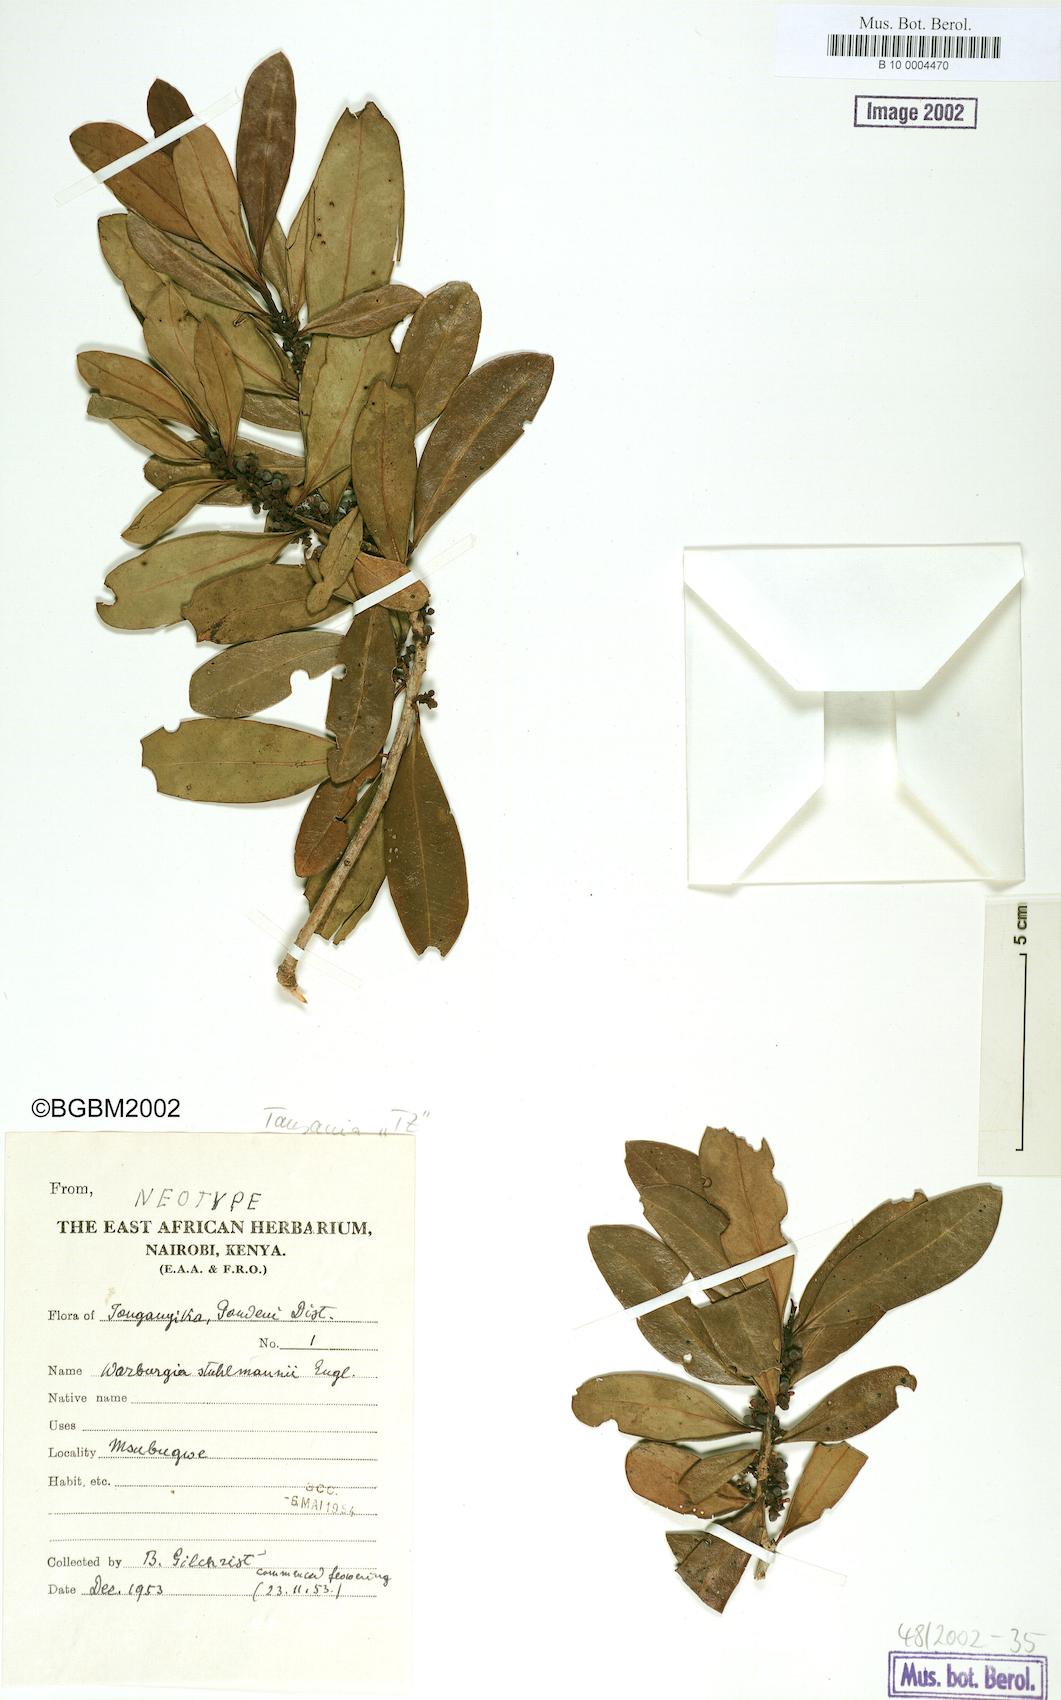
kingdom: Plantae
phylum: Tracheophyta
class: Magnoliopsida
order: Canellales
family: Canellaceae
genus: Warburgia
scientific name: Warburgia stuhlmannii
